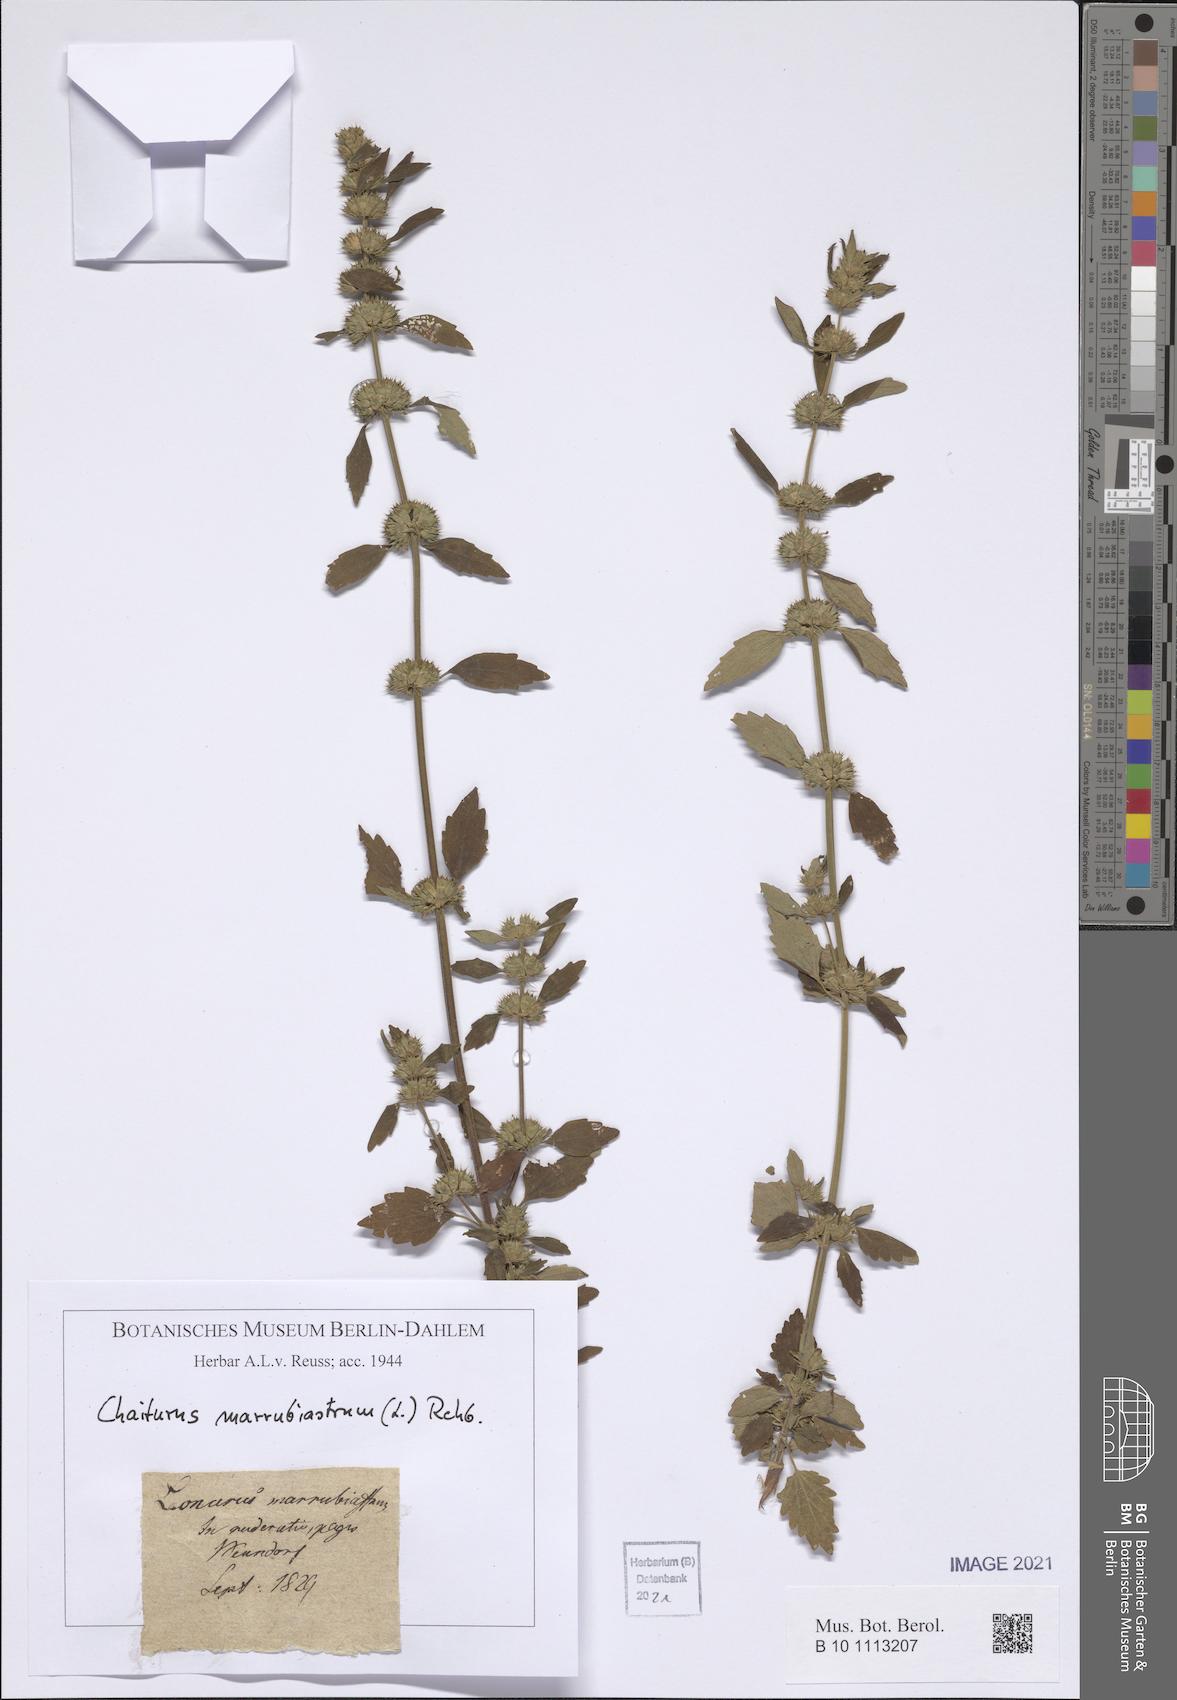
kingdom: Plantae
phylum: Tracheophyta
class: Magnoliopsida
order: Lamiales
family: Lamiaceae
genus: Chaiturus
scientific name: Chaiturus marrubiastrum
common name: Lion's tail
